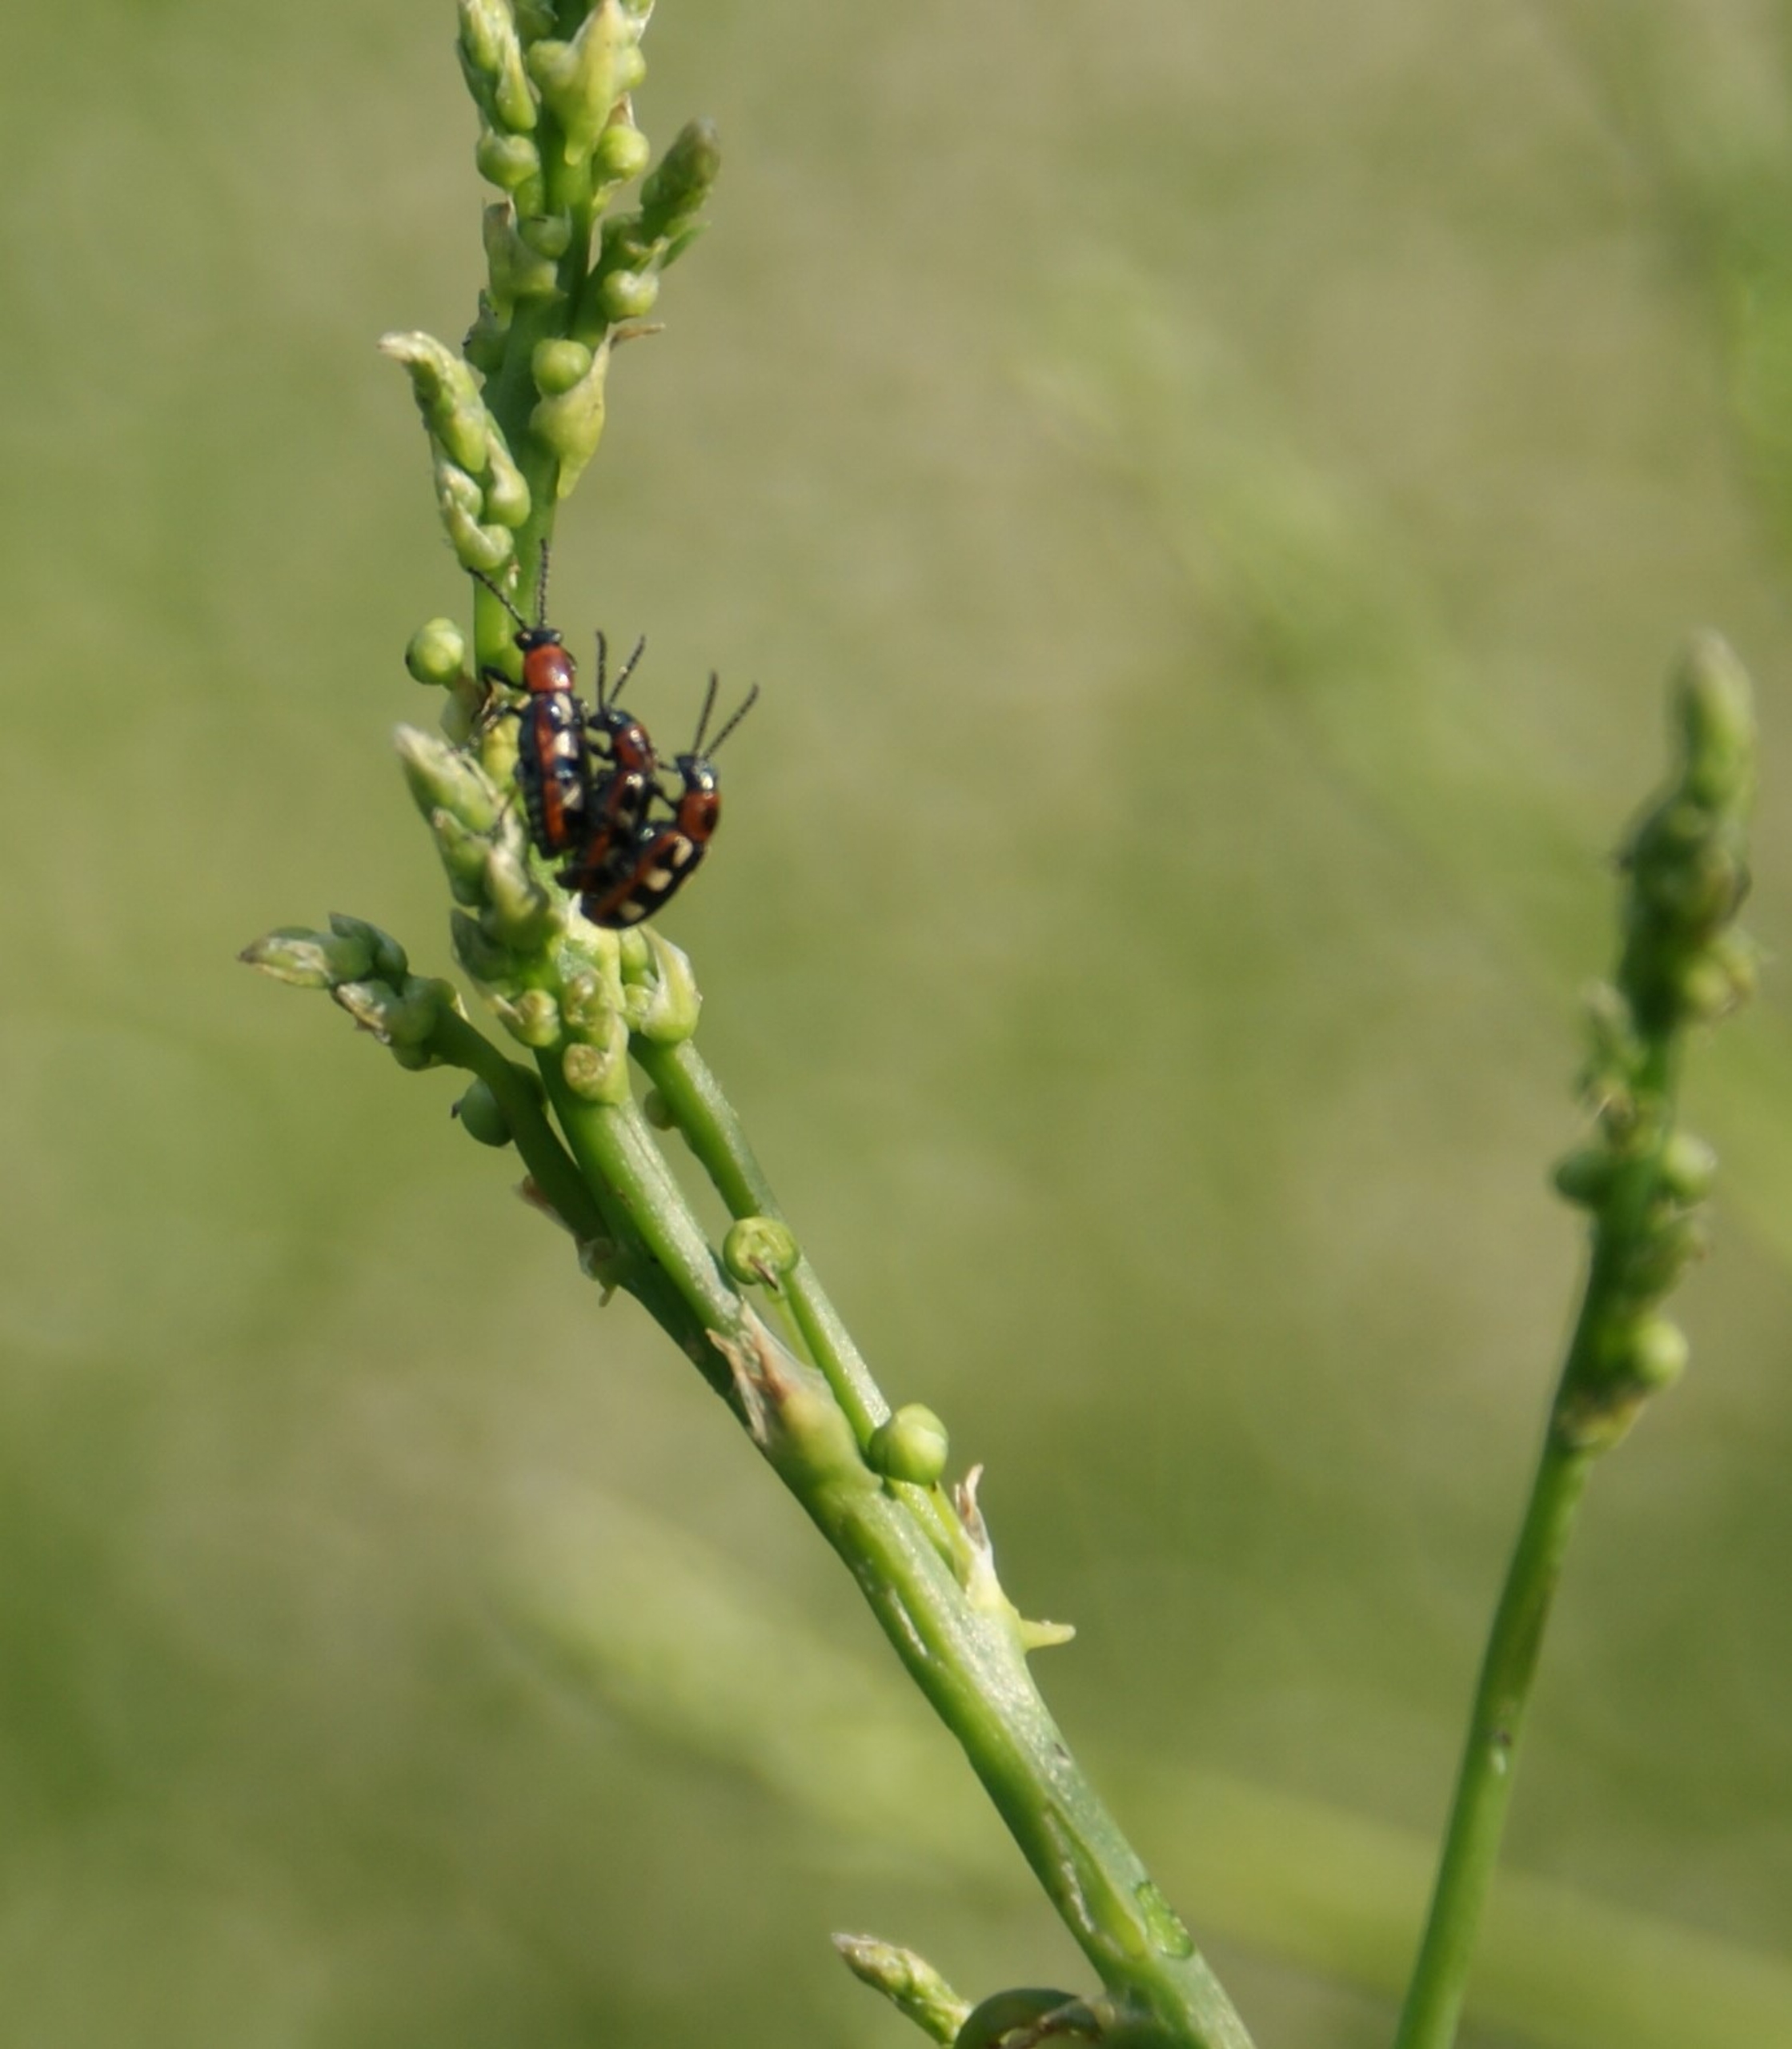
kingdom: Animalia
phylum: Arthropoda
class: Insecta
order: Coleoptera
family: Chrysomelidae
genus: Crioceris
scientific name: Crioceris asparagi
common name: Gulplettet aspargesbille
